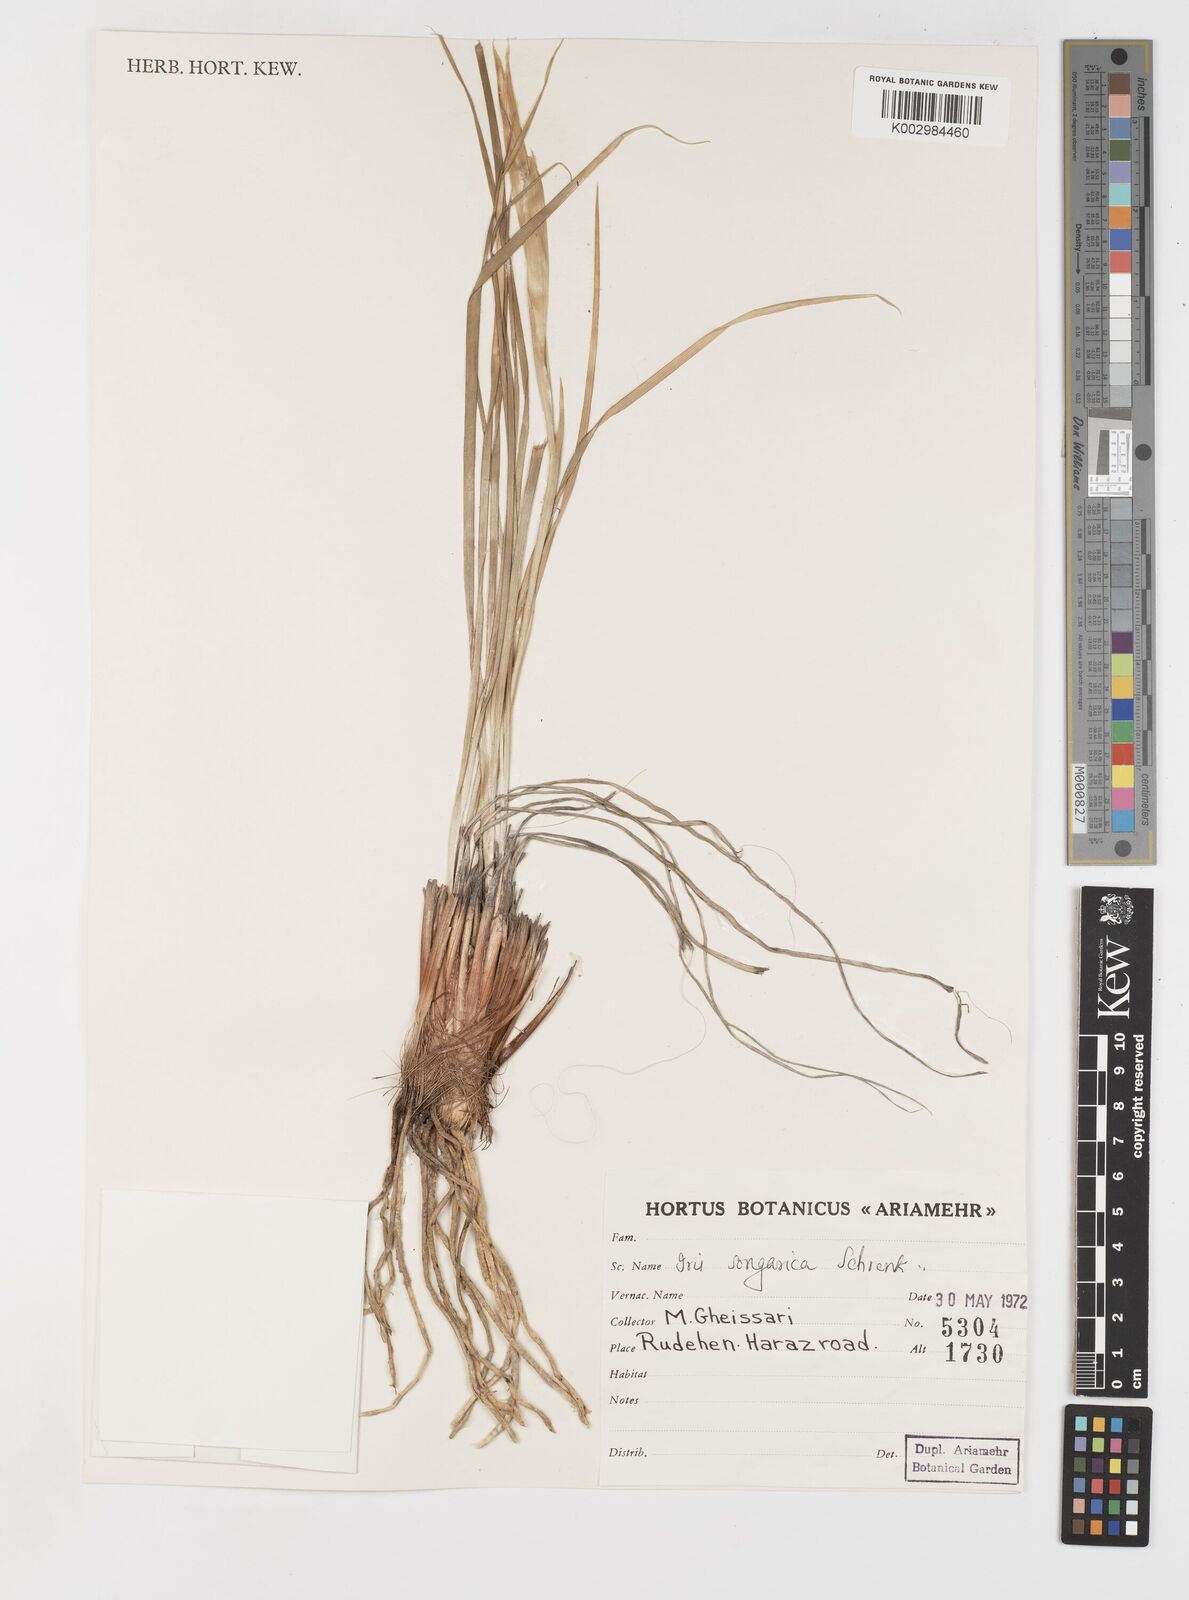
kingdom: Plantae
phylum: Tracheophyta
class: Liliopsida
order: Asparagales
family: Iridaceae
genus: Iris
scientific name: Iris songarica
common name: Songar iris
